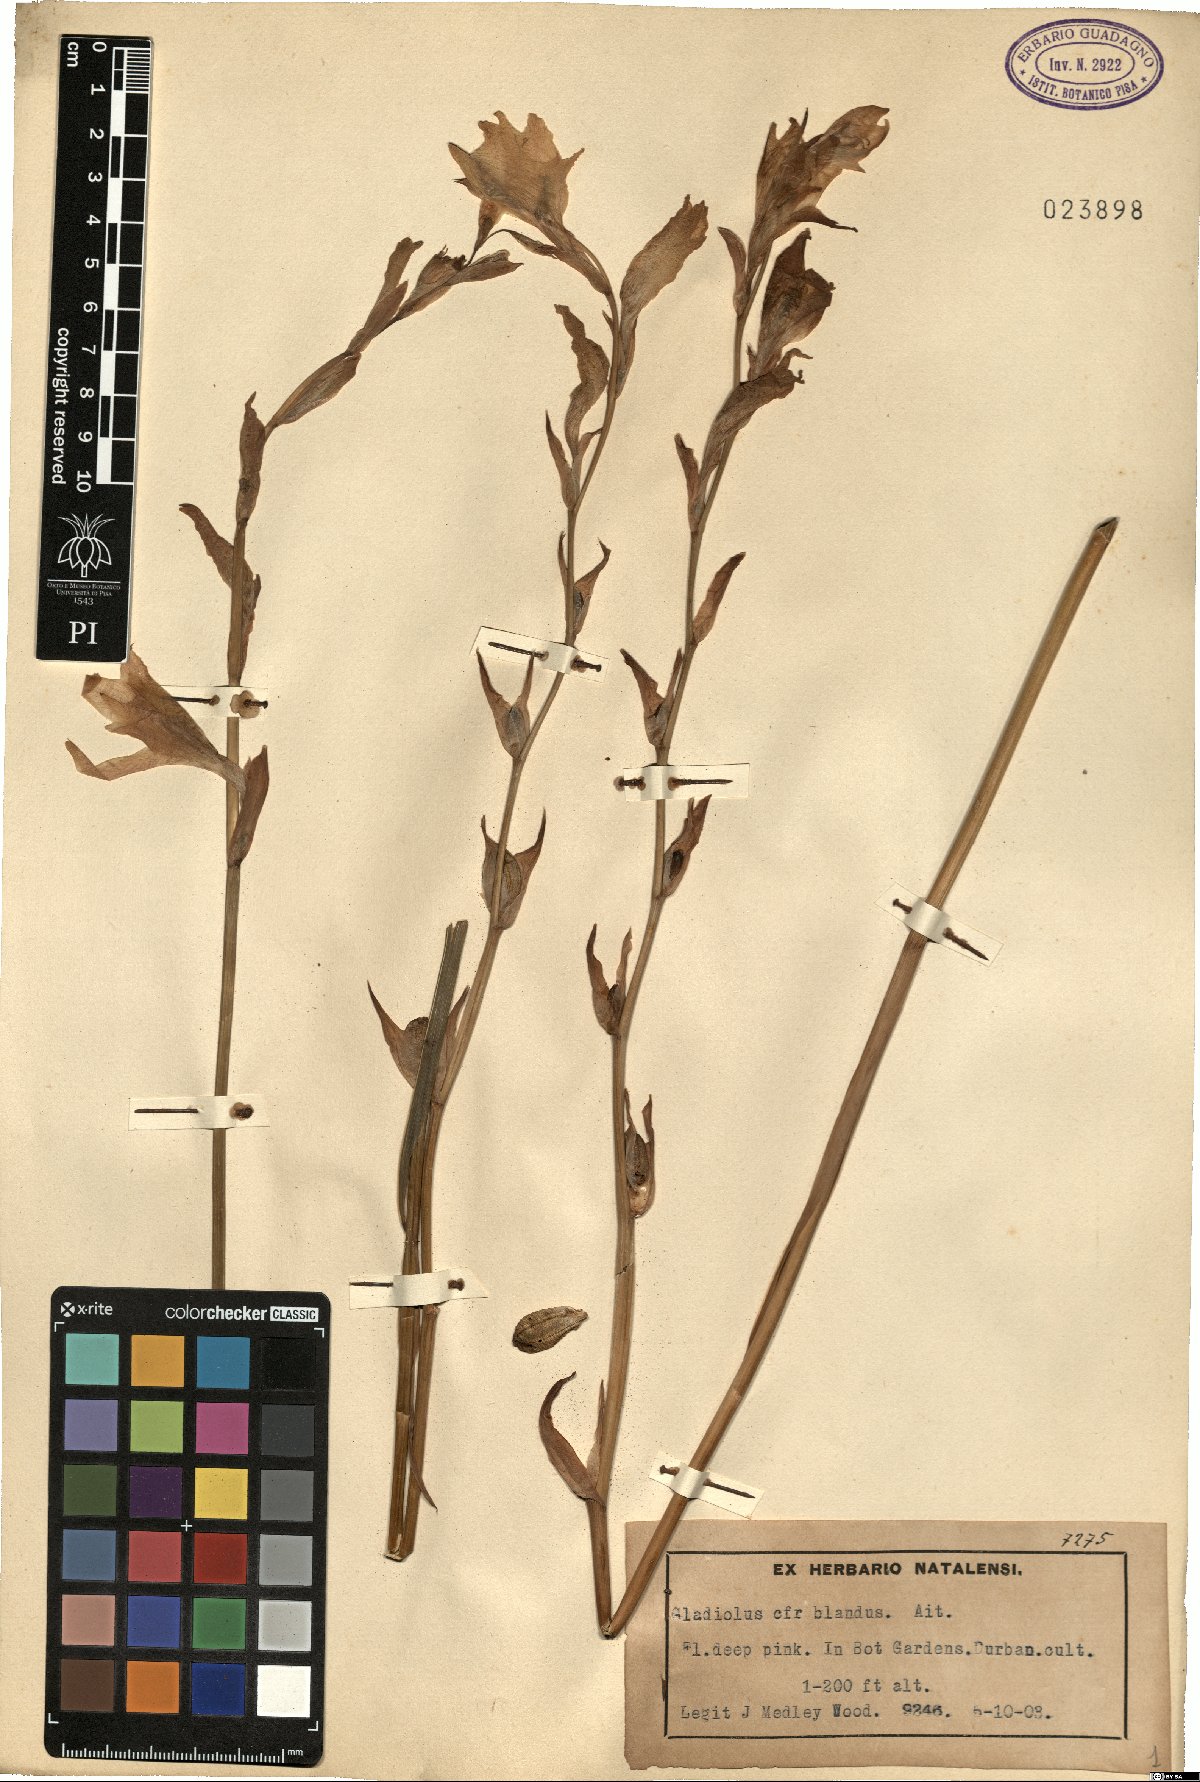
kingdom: Plantae
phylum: Tracheophyta
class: Liliopsida
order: Asparagales
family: Iridaceae
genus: Gladiolus
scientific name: Gladiolus carneus
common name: Painted-lady
